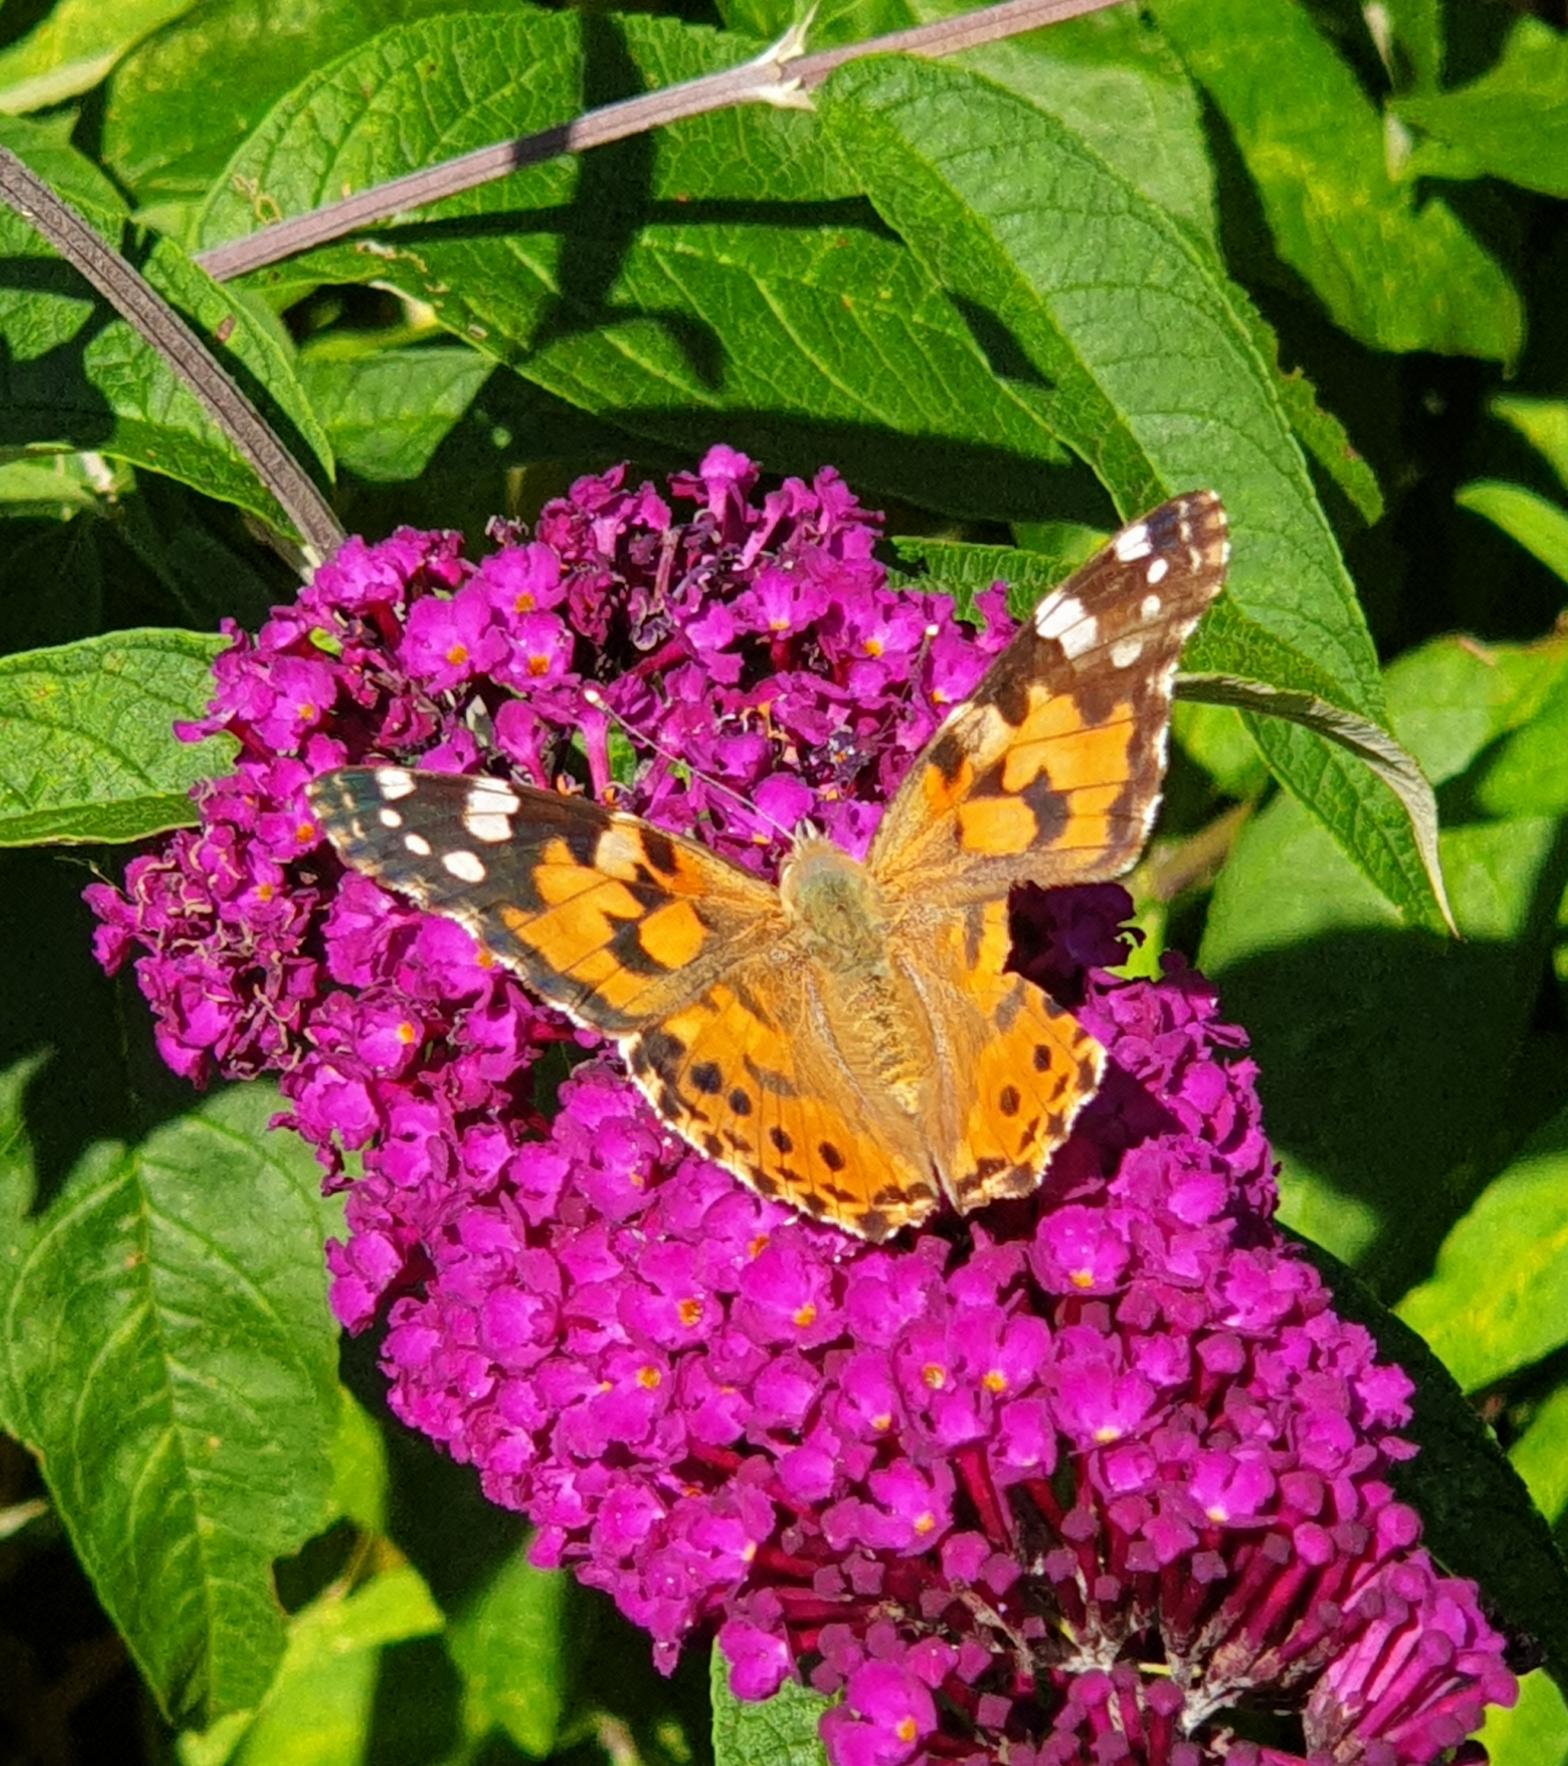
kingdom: Animalia
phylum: Arthropoda
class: Insecta
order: Lepidoptera
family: Nymphalidae
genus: Vanessa
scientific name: Vanessa cardui
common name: Tidselsommerfugl
